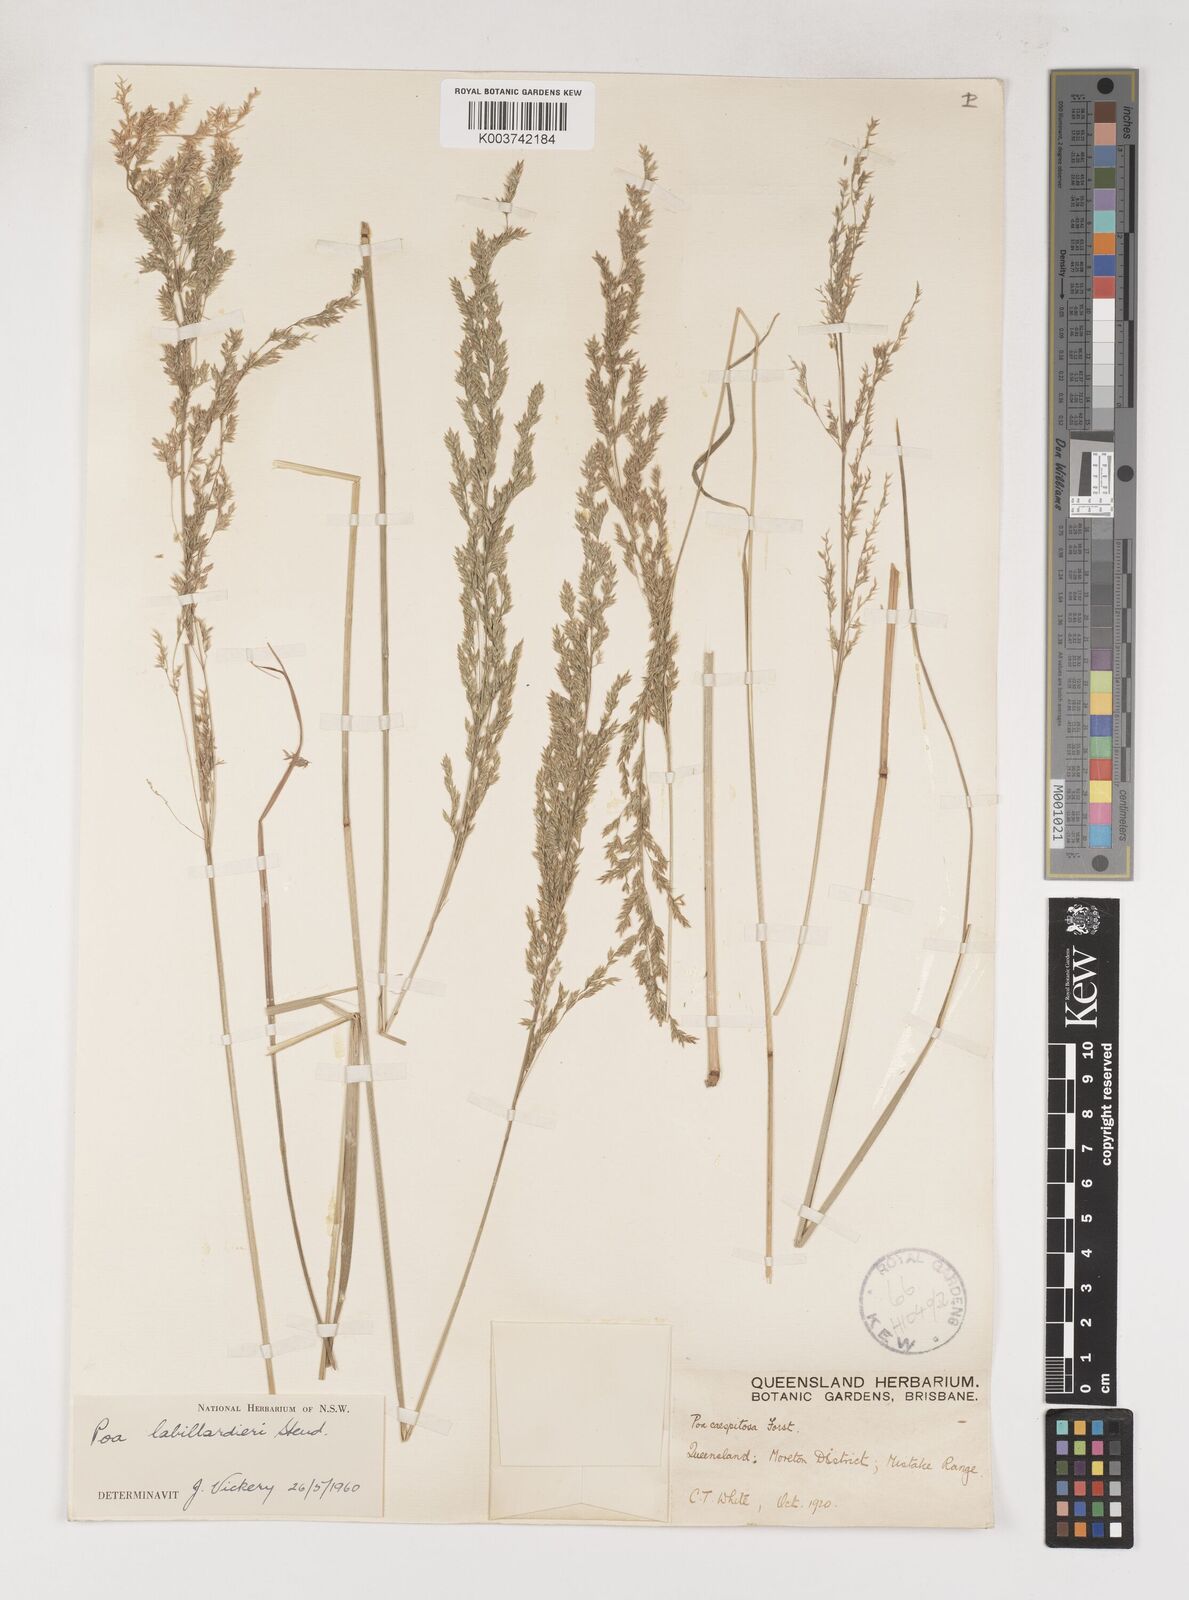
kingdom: Plantae
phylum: Tracheophyta
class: Liliopsida
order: Poales
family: Poaceae
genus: Poa
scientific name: Poa labillardierei
